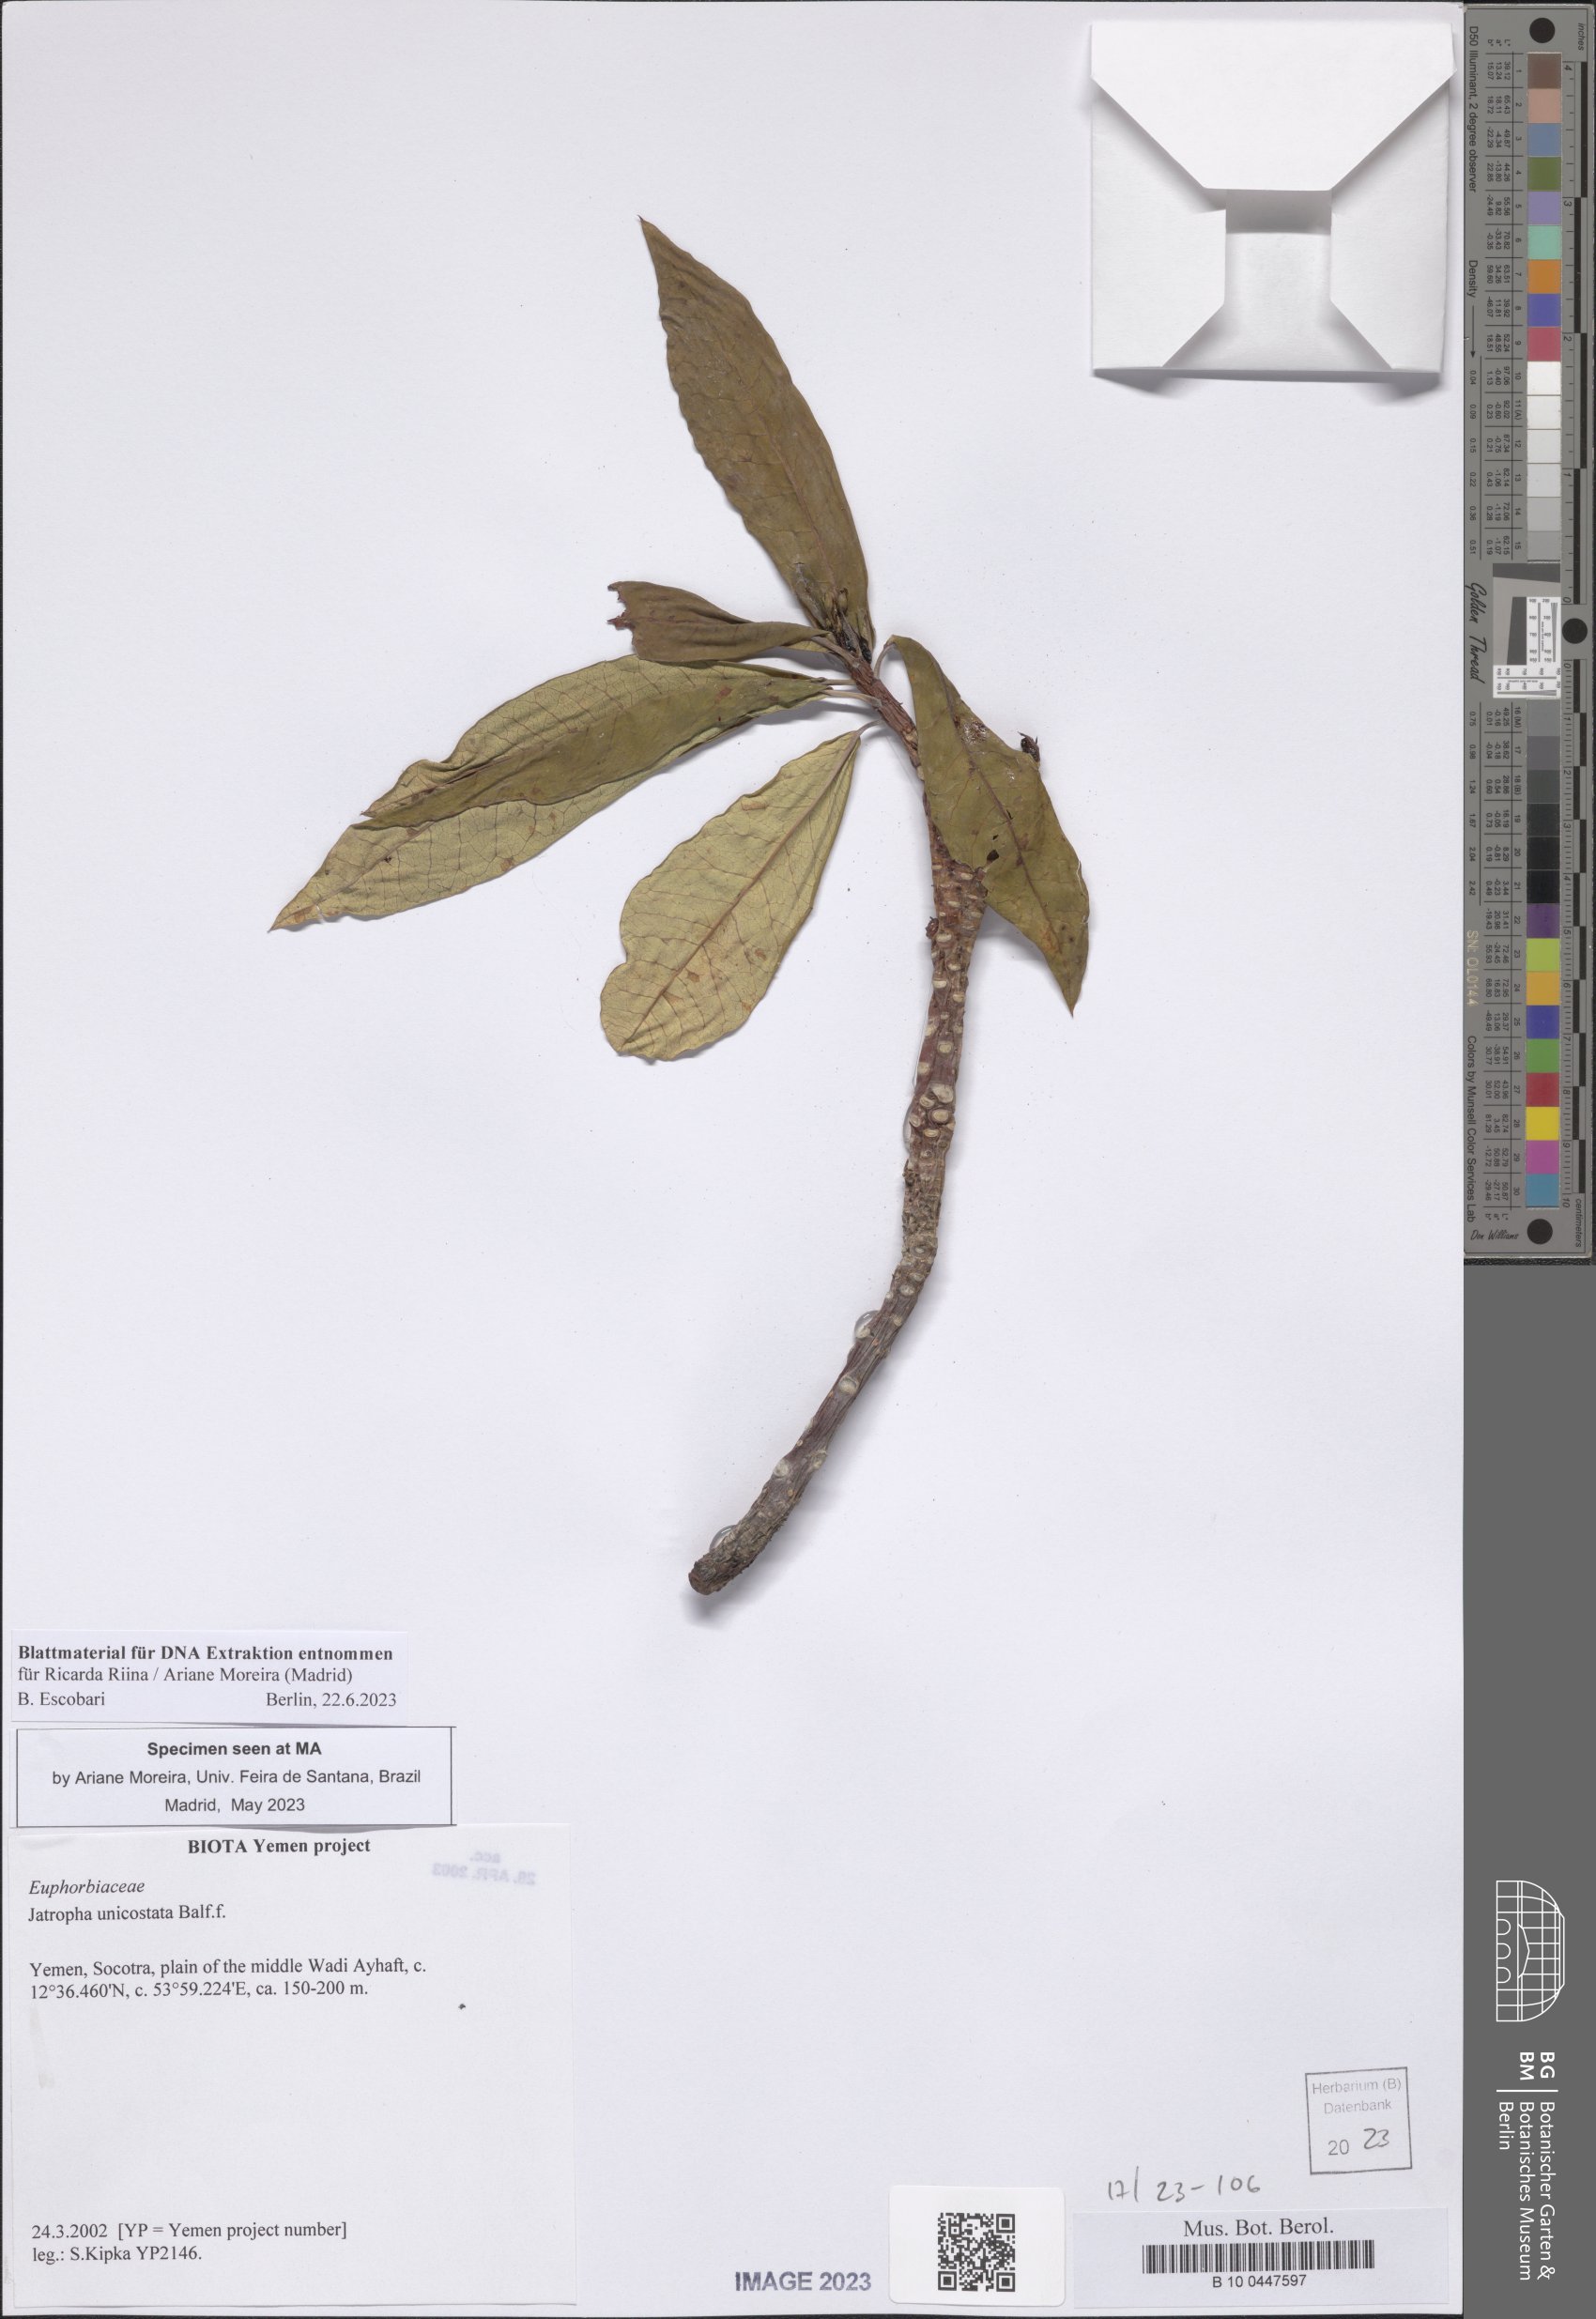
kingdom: Plantae
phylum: Tracheophyta
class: Magnoliopsida
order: Malpighiales
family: Euphorbiaceae
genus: Jatropha
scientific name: Jatropha unicostata
